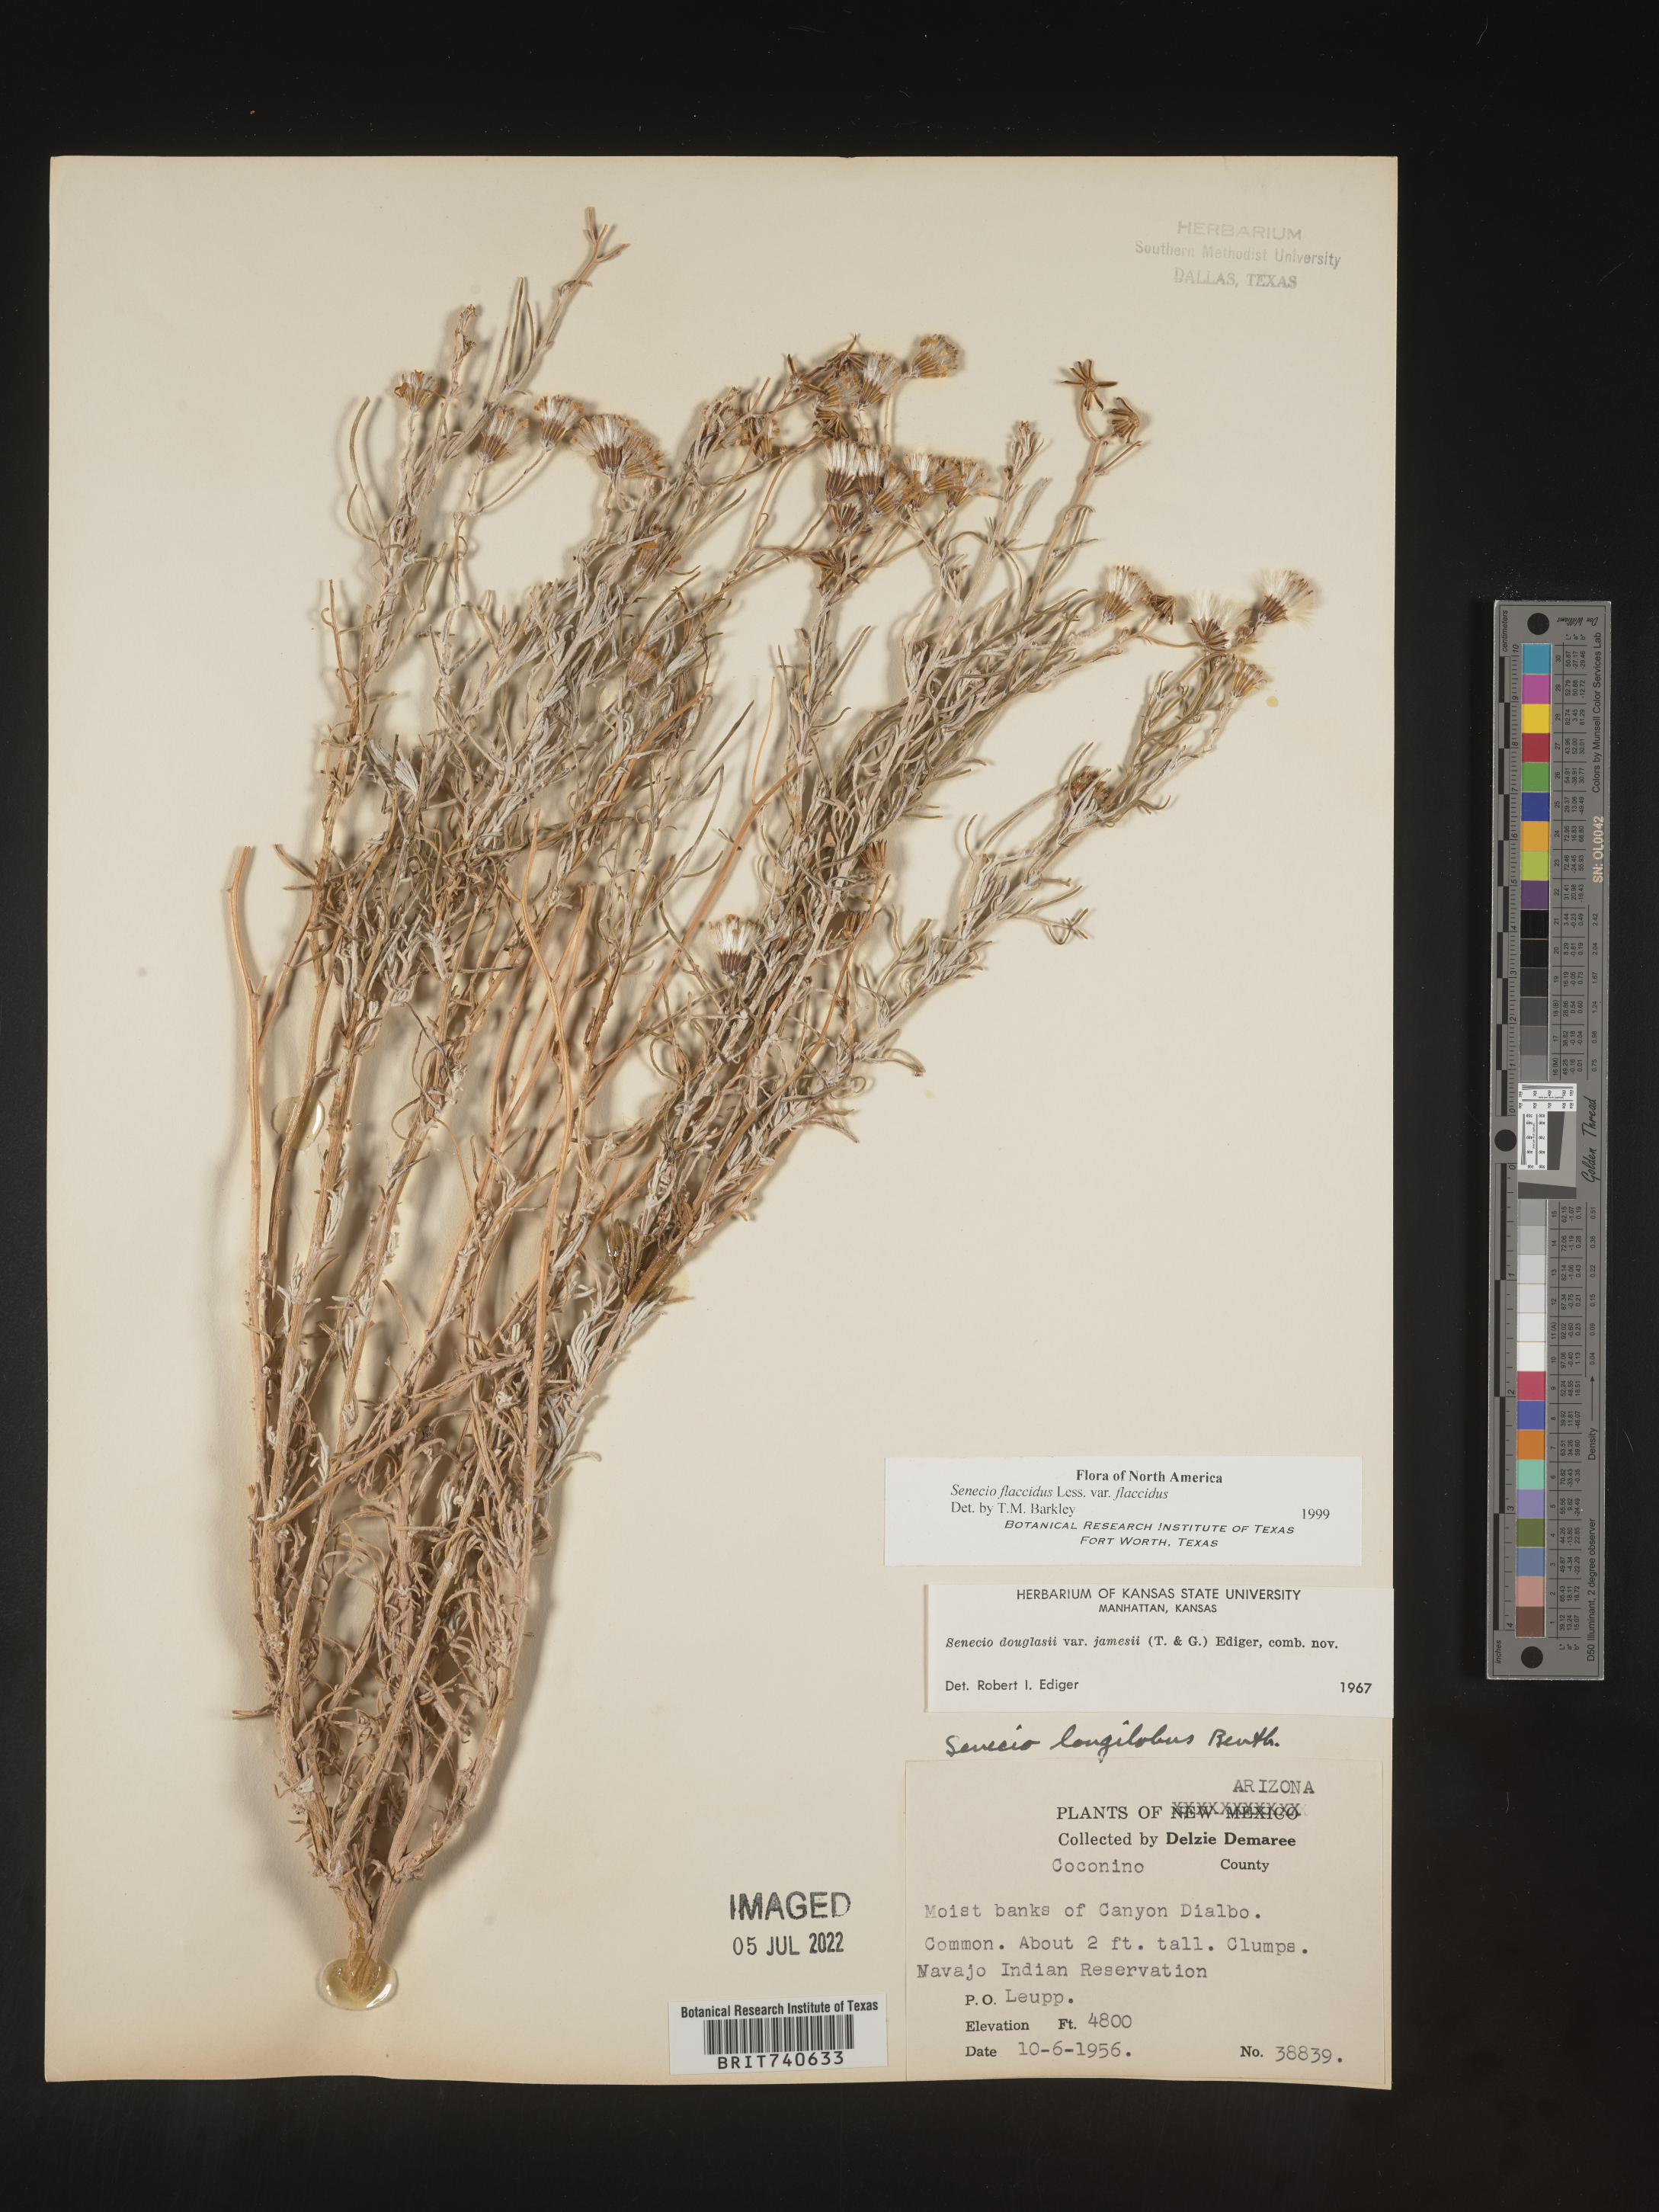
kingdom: Plantae
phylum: Tracheophyta
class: Magnoliopsida
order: Asterales
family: Asteraceae
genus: Senecio
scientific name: Senecio flaccidus
